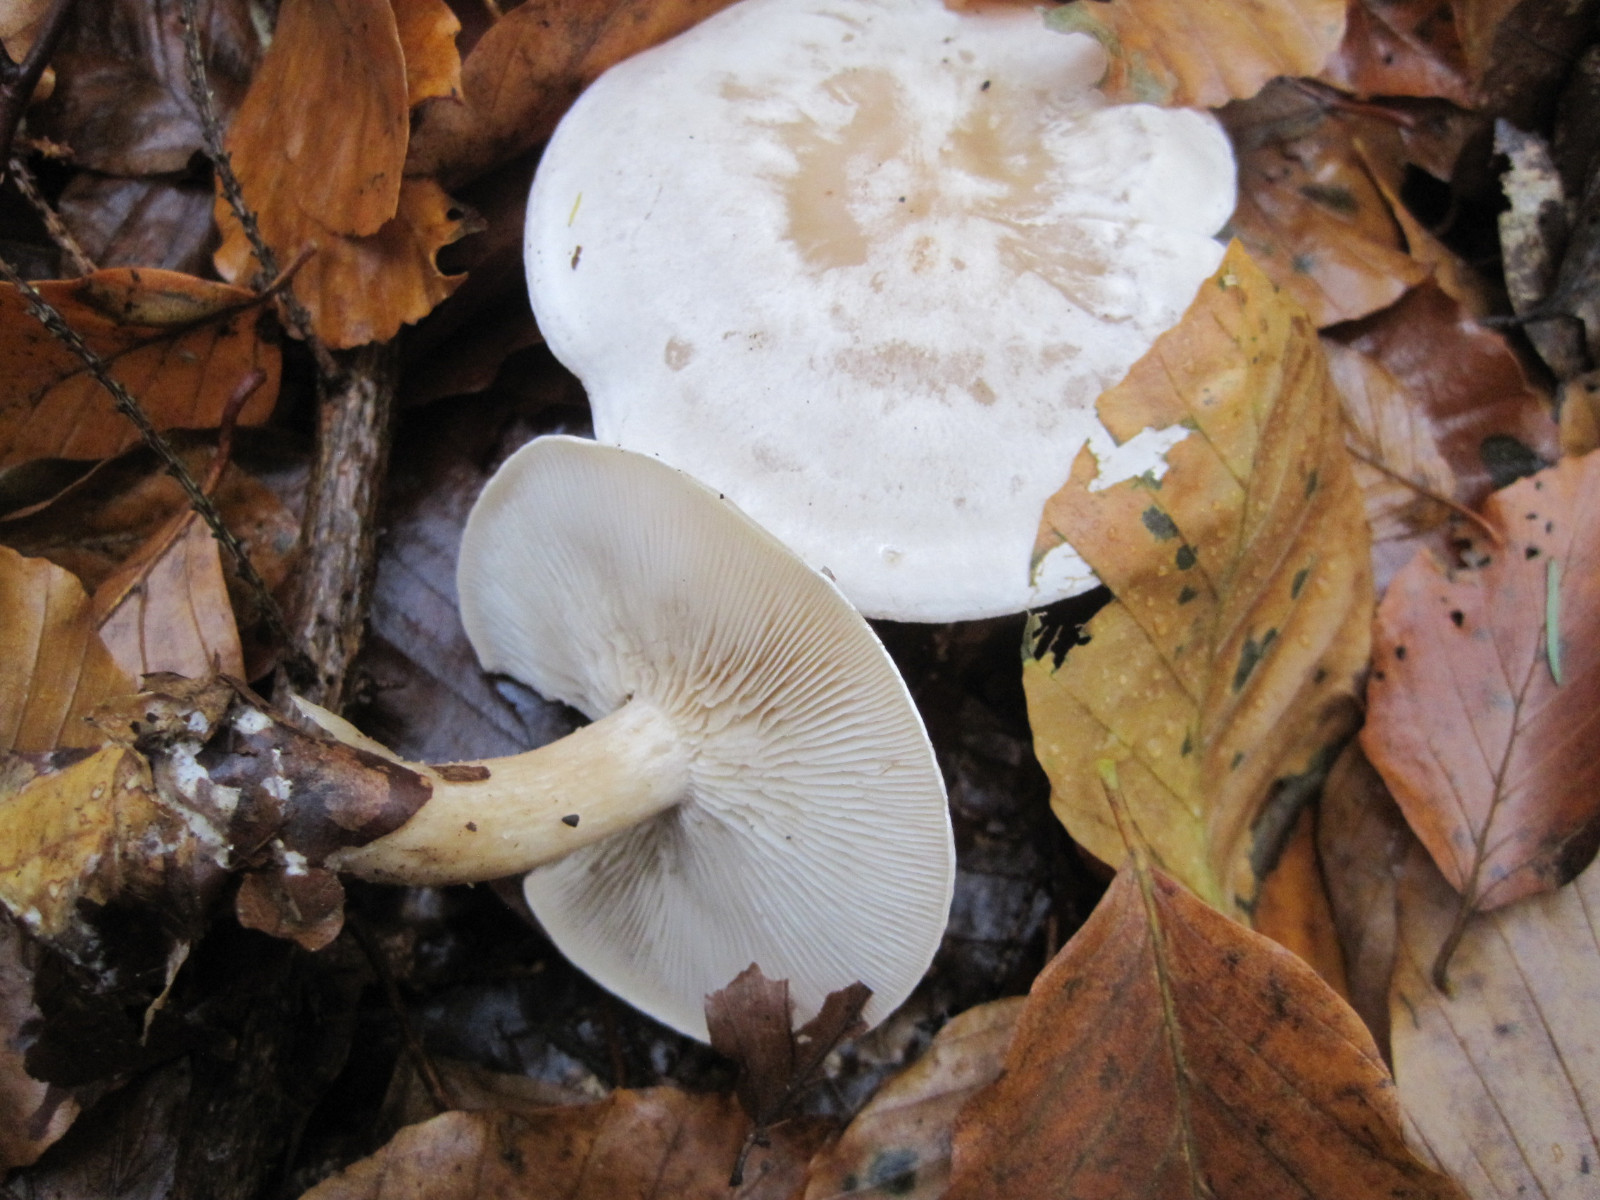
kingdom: Fungi
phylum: Basidiomycota
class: Agaricomycetes
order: Agaricales
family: Tricholomataceae
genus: Clitocybe
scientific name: Clitocybe phyllophila
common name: løv-tragthat
